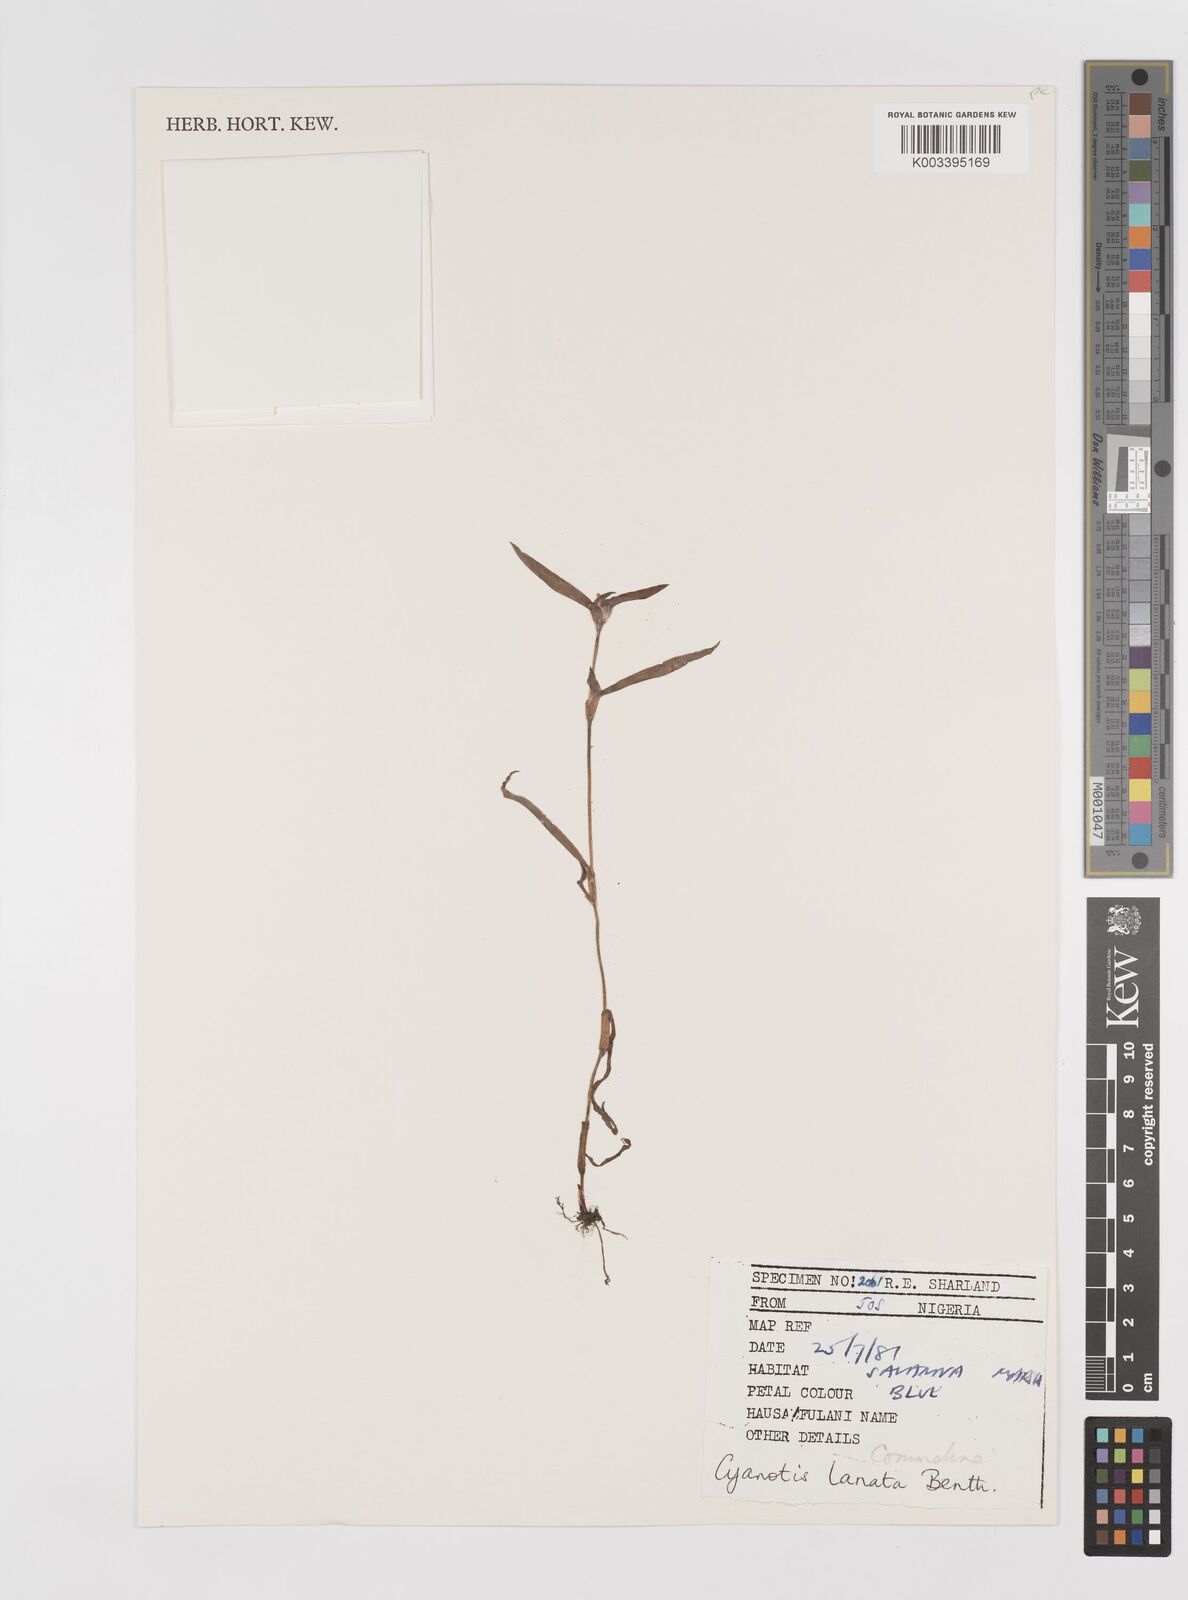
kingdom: Plantae
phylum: Tracheophyta
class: Liliopsida
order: Commelinales
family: Commelinaceae
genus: Cyanotis
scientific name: Cyanotis lanata
